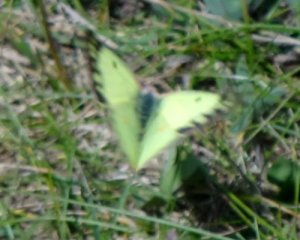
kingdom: Animalia
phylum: Arthropoda
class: Insecta
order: Lepidoptera
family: Pieridae
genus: Colias
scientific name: Colias philodice
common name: Clouded Sulphur
